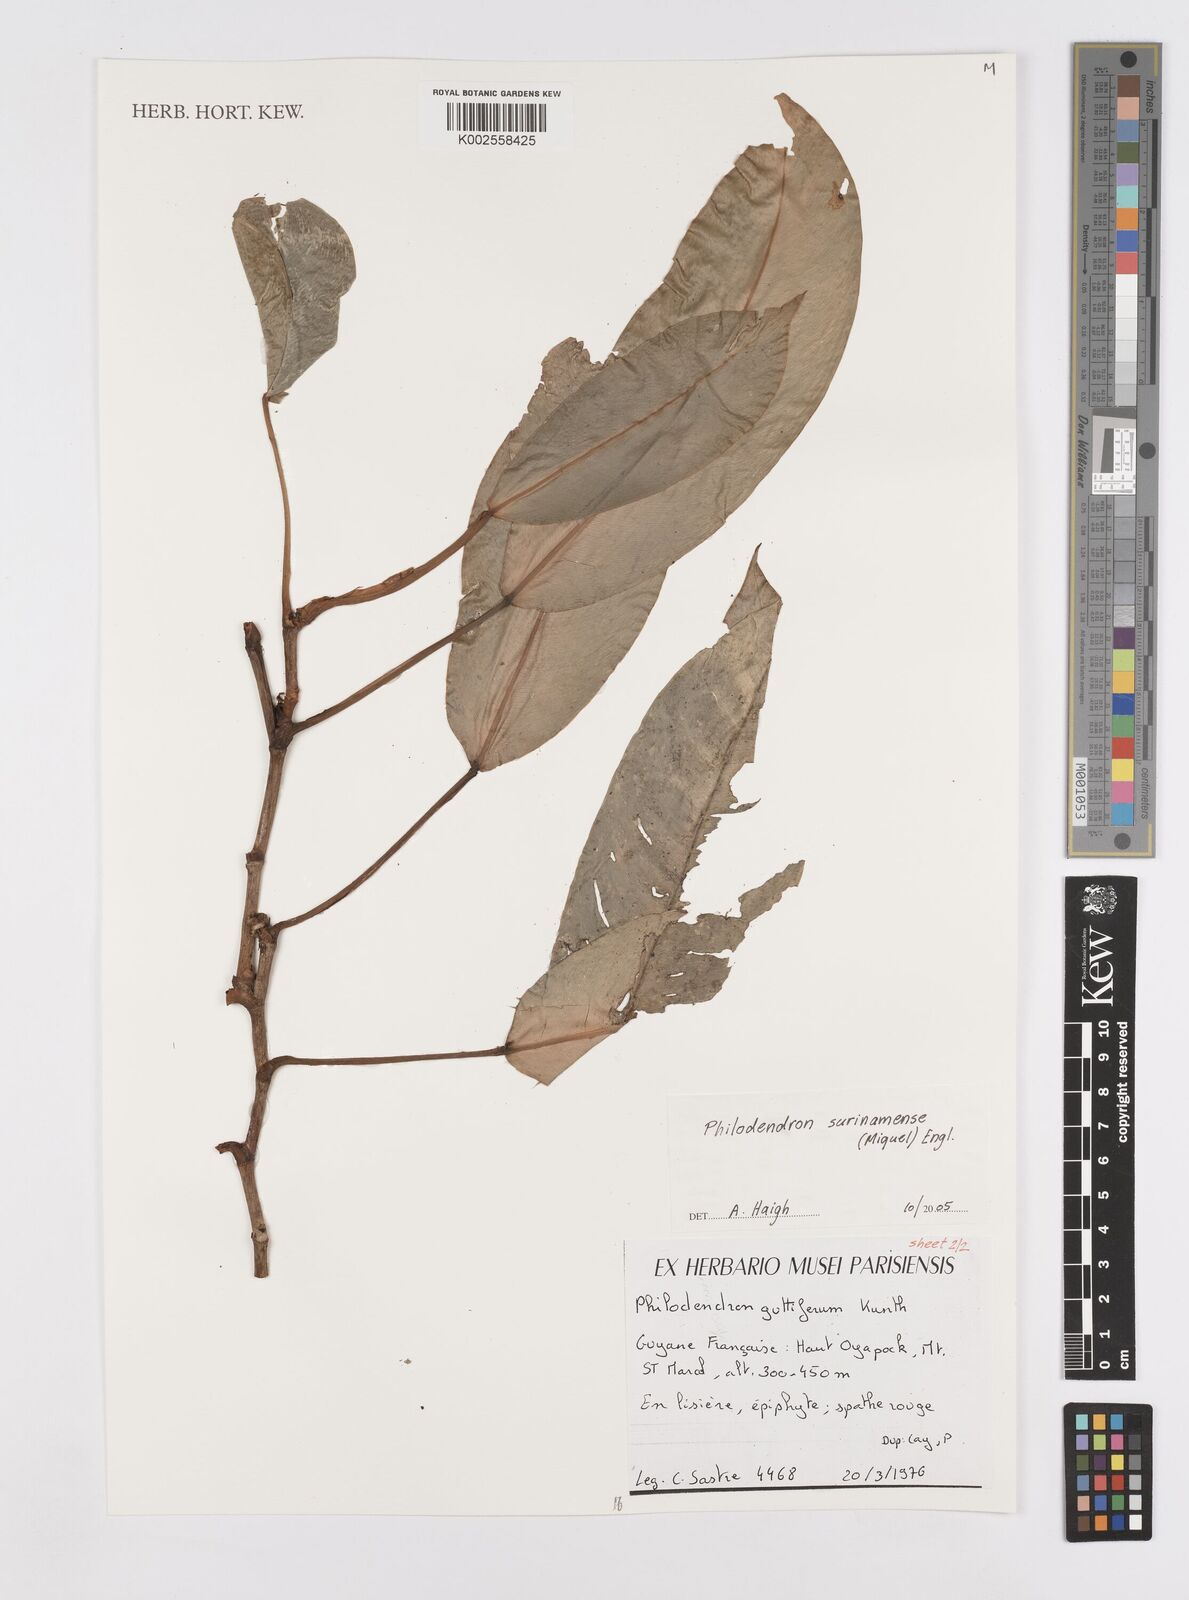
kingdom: Plantae
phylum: Tracheophyta
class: Liliopsida
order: Alismatales
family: Araceae
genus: Philodendron
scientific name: Philodendron surinamense
